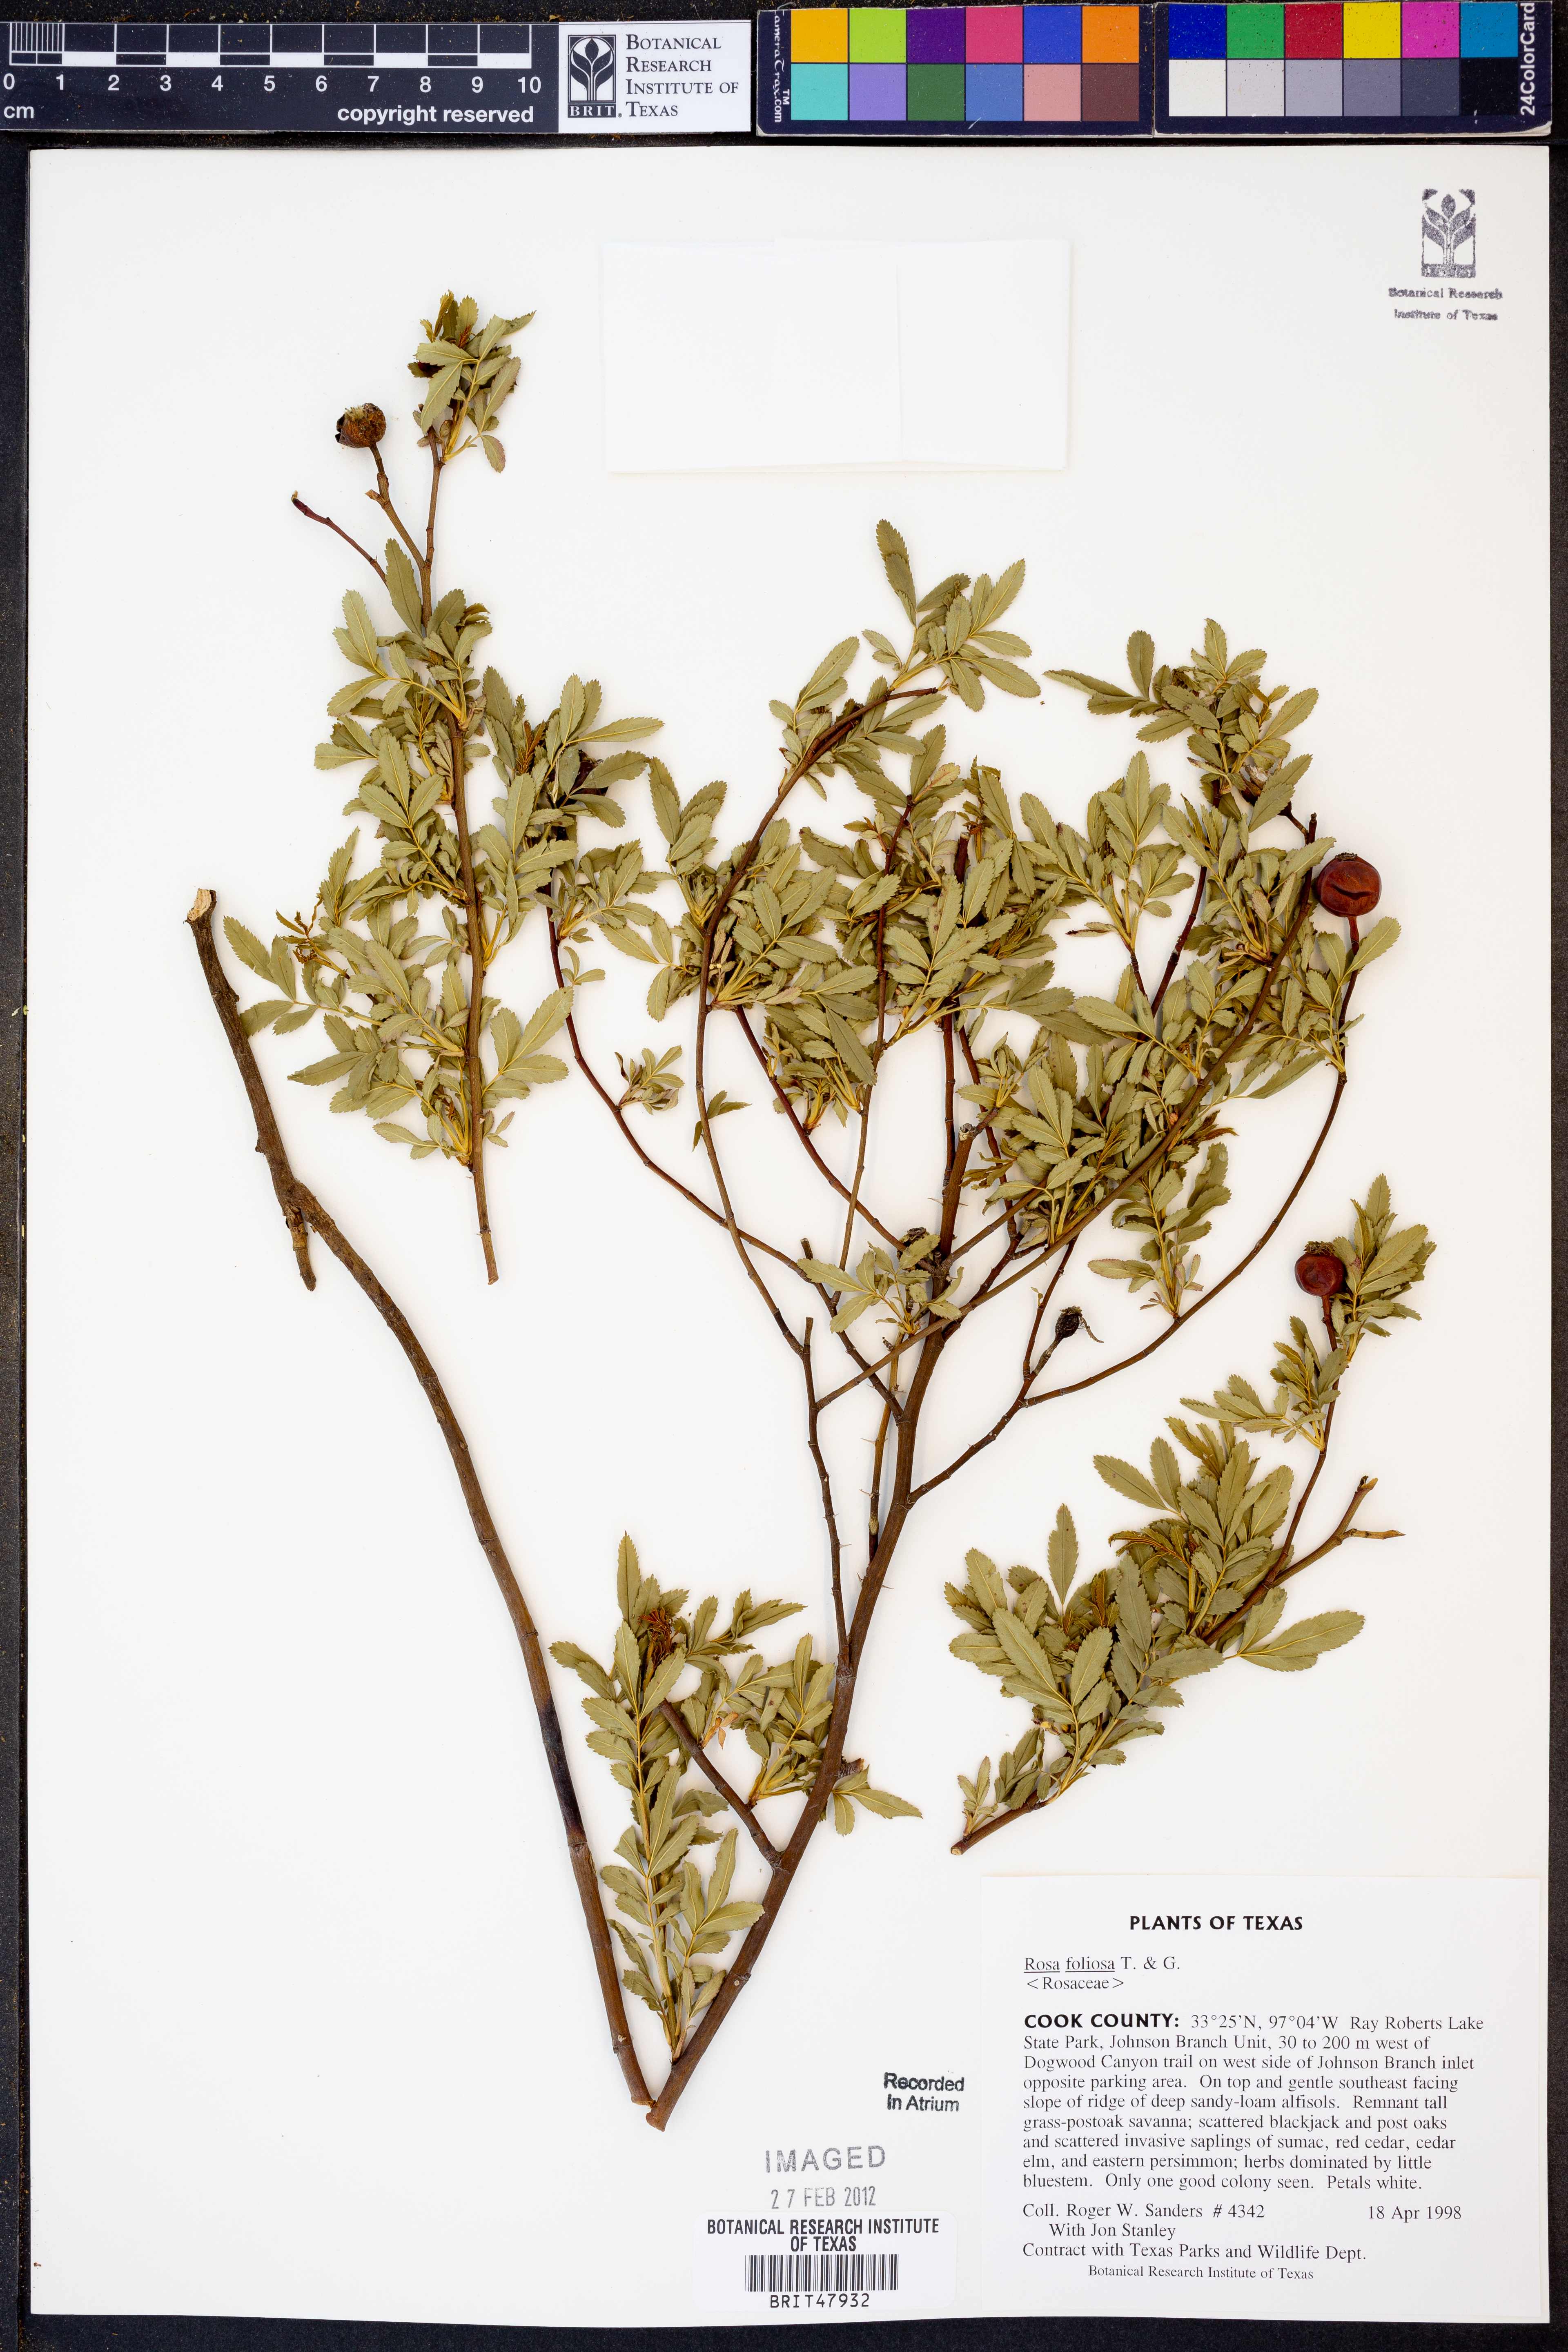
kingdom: Plantae
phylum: Tracheophyta
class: Magnoliopsida
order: Rosales
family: Rosaceae
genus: Rosa
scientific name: Rosa foliolosa
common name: White prairie rose
